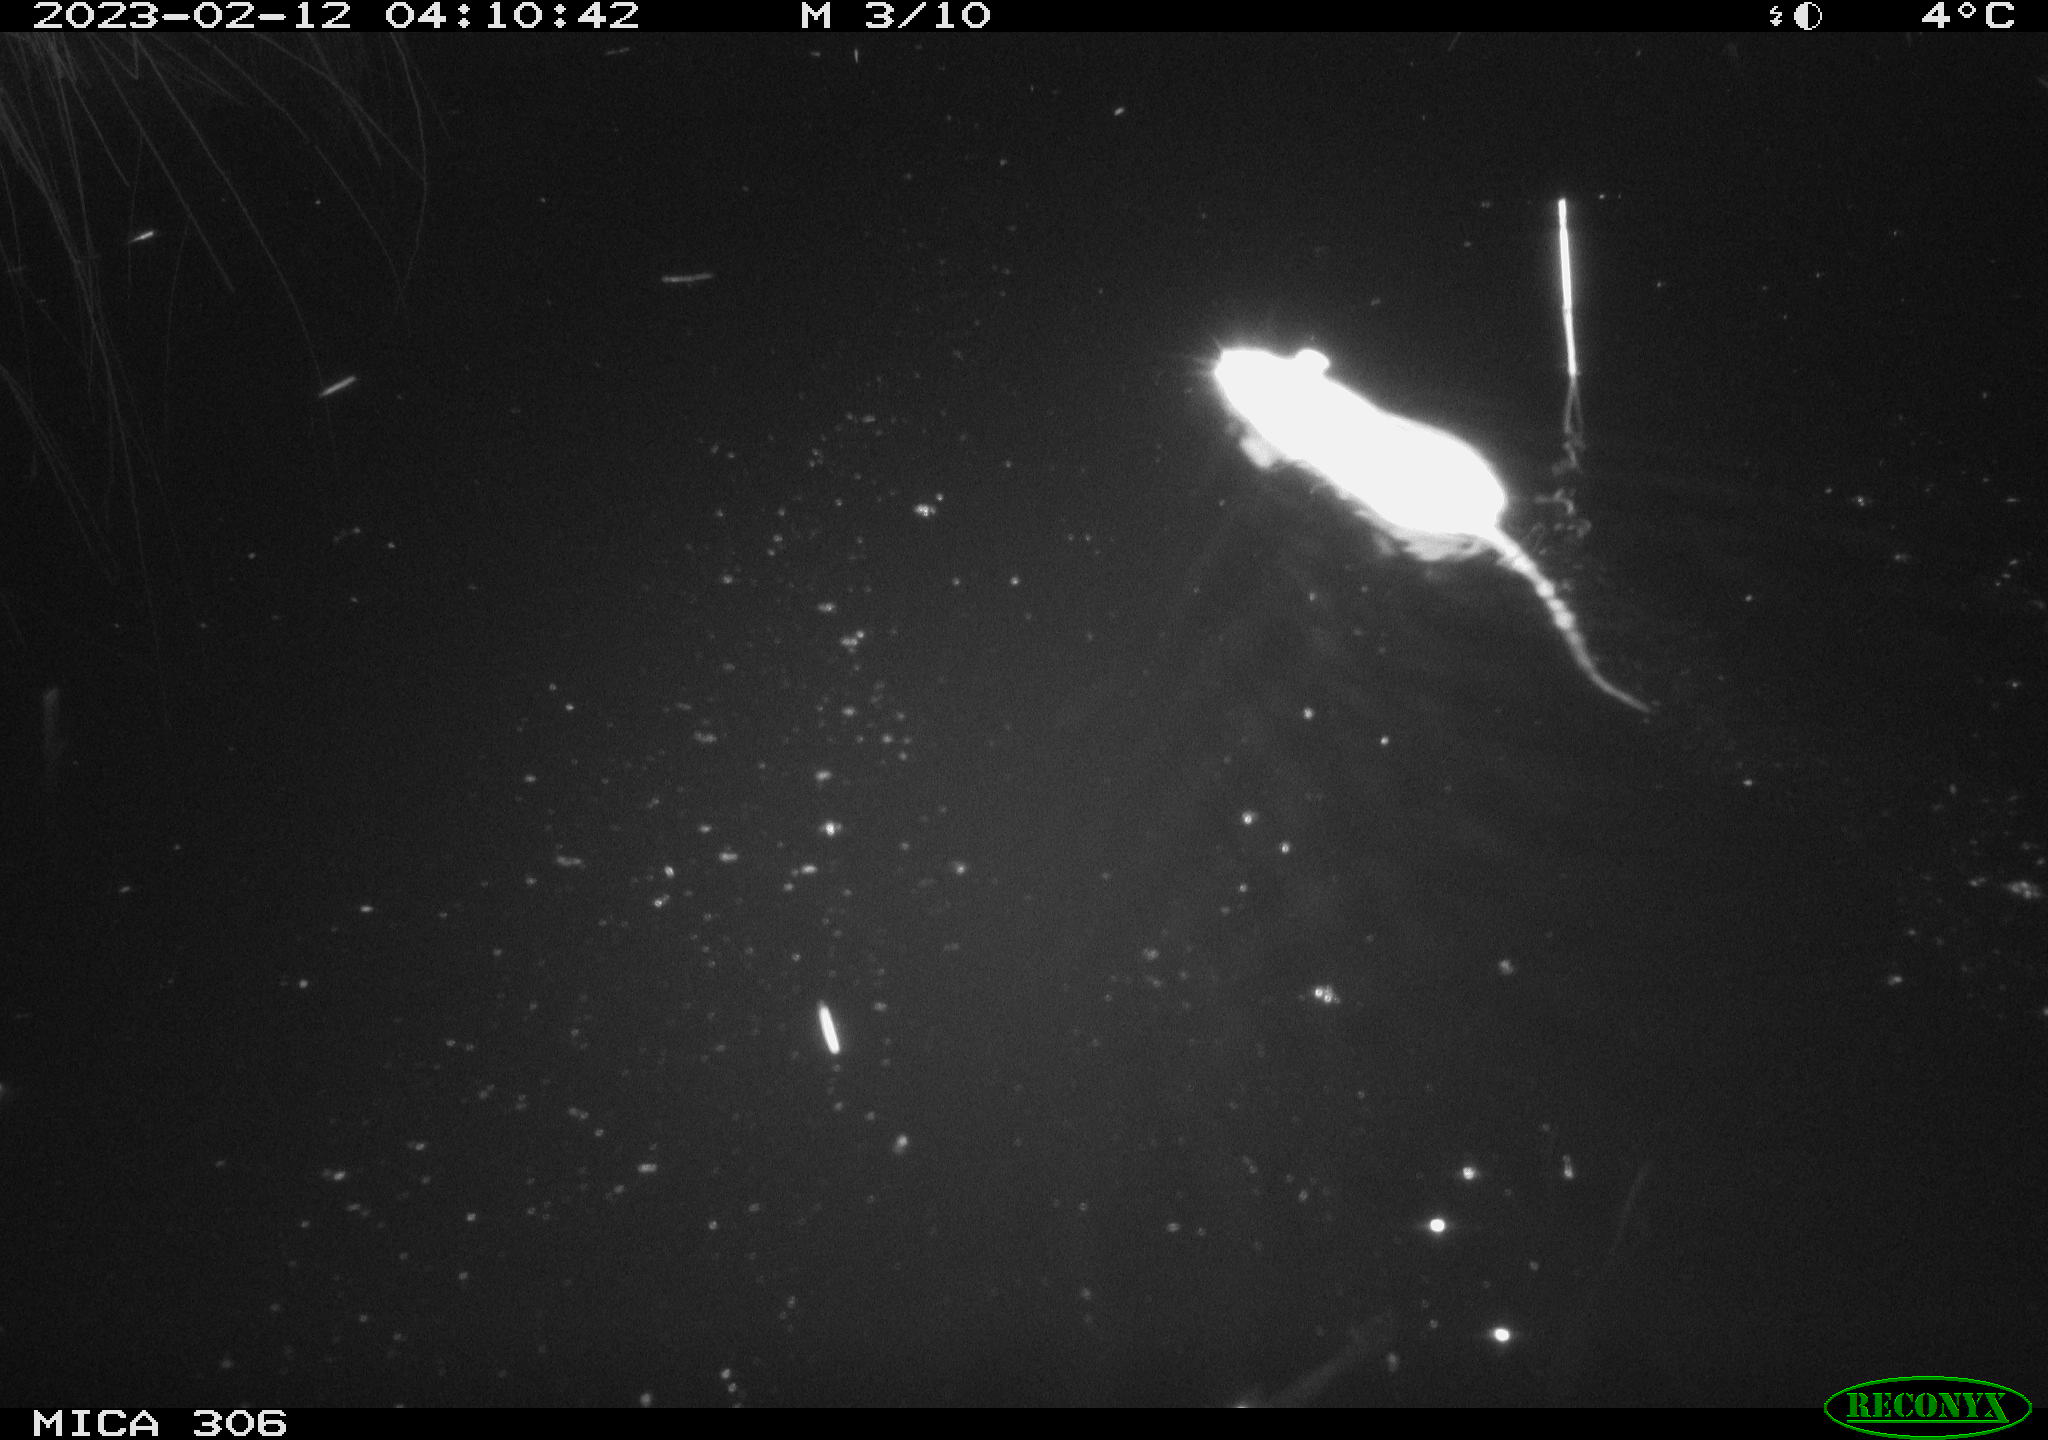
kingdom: Animalia
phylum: Chordata
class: Mammalia
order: Rodentia
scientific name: Rodentia
